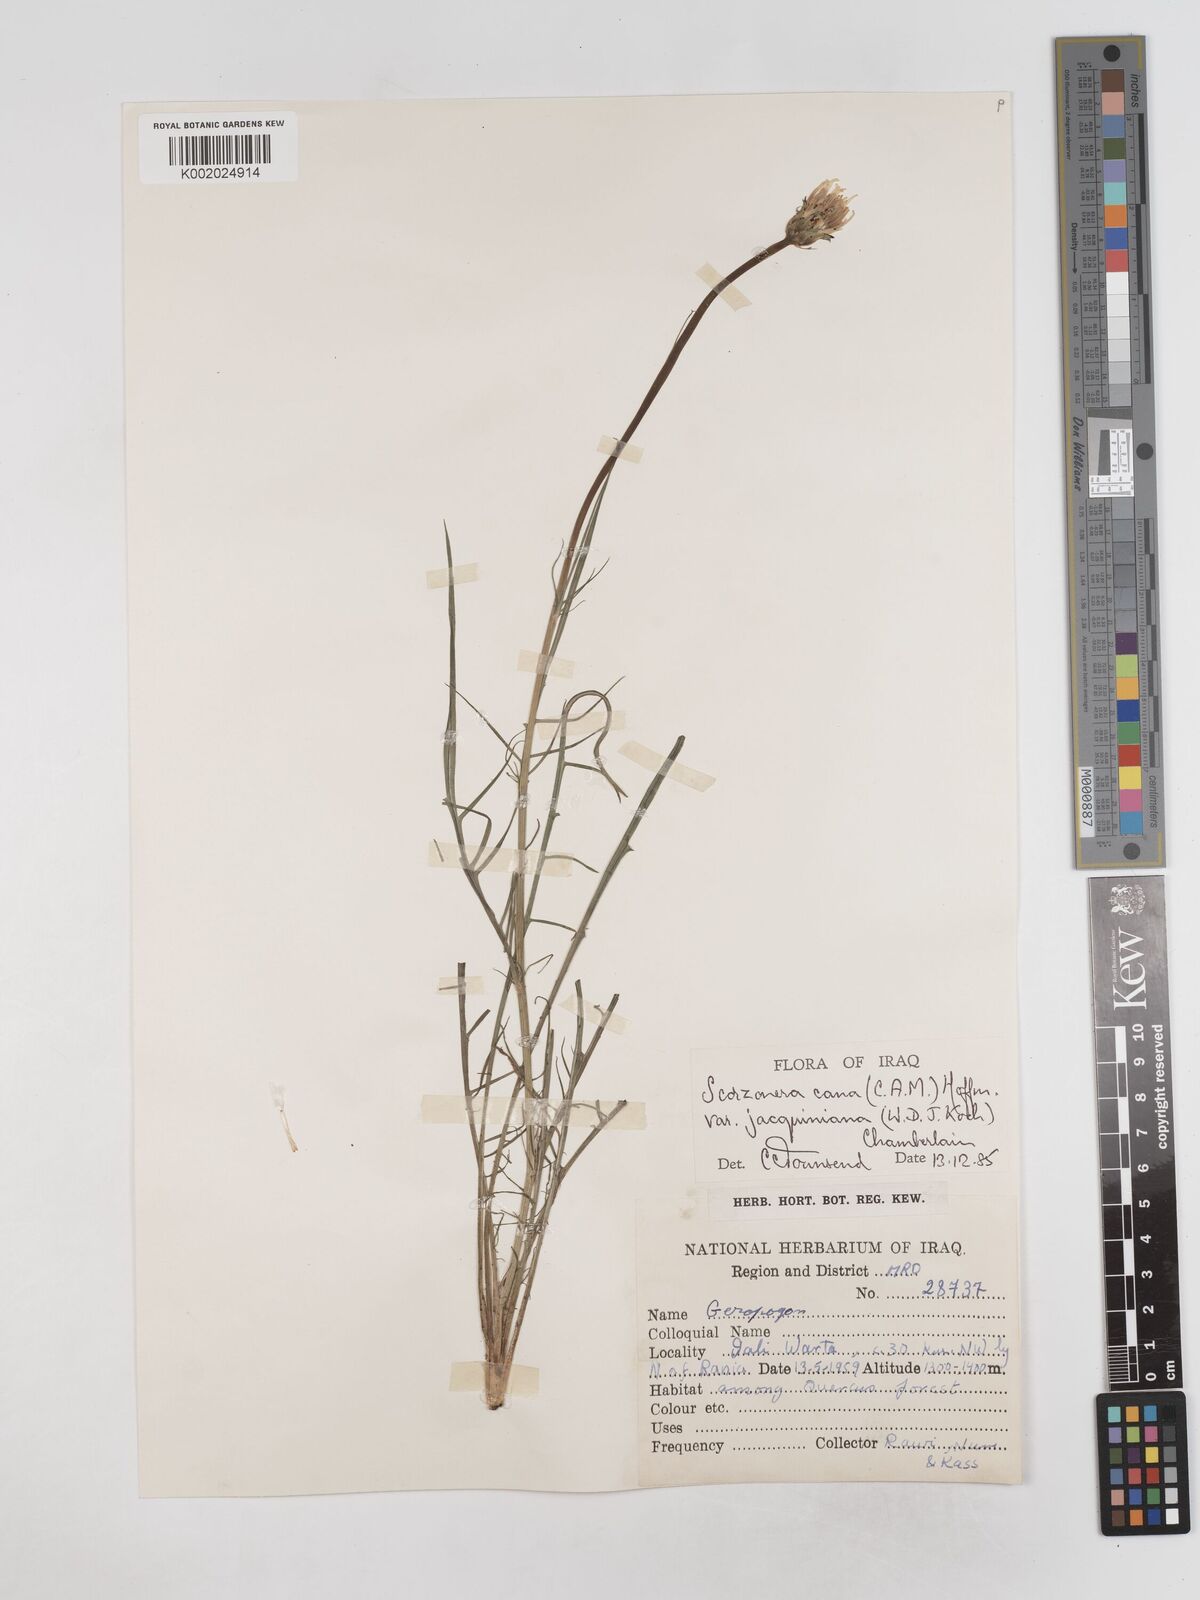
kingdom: Plantae
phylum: Tracheophyta
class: Magnoliopsida
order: Asterales
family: Asteraceae
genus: Scorzonera
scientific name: Scorzonera cana
